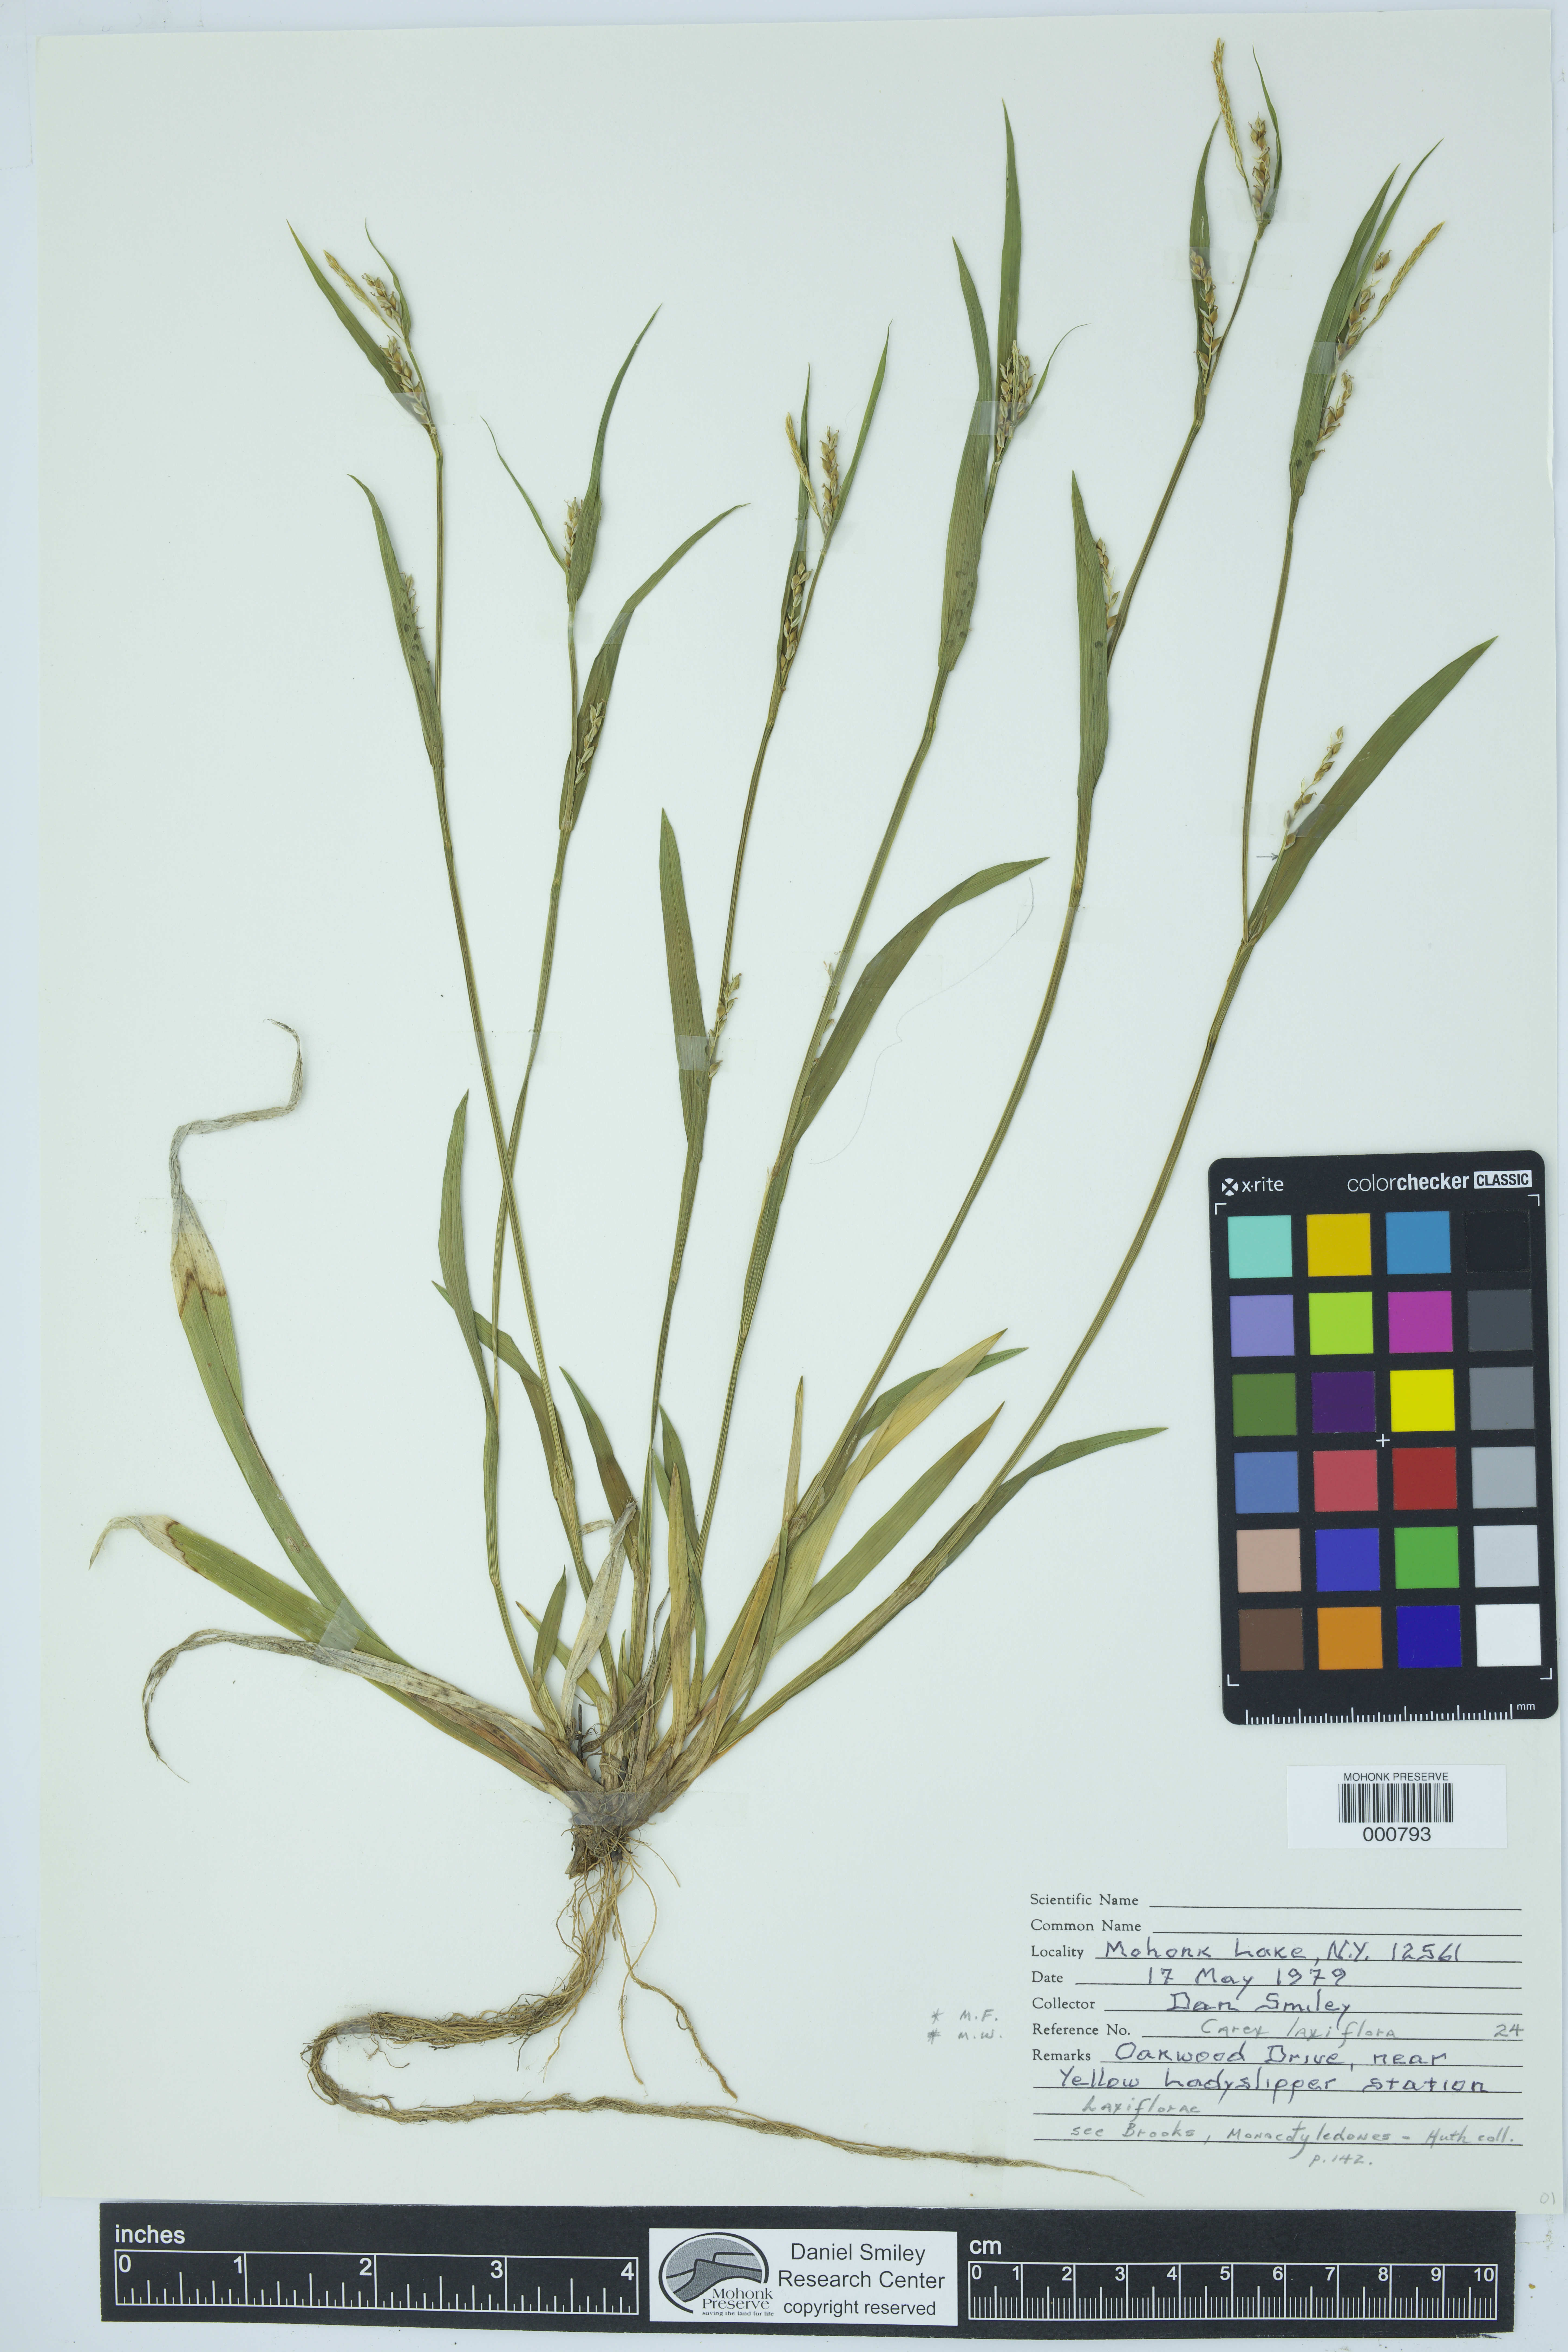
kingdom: Plantae
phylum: Tracheophyta
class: Liliopsida
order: Poales
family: Cyperaceae
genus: Carex
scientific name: Carex laxiflora
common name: Beech wood sedge
